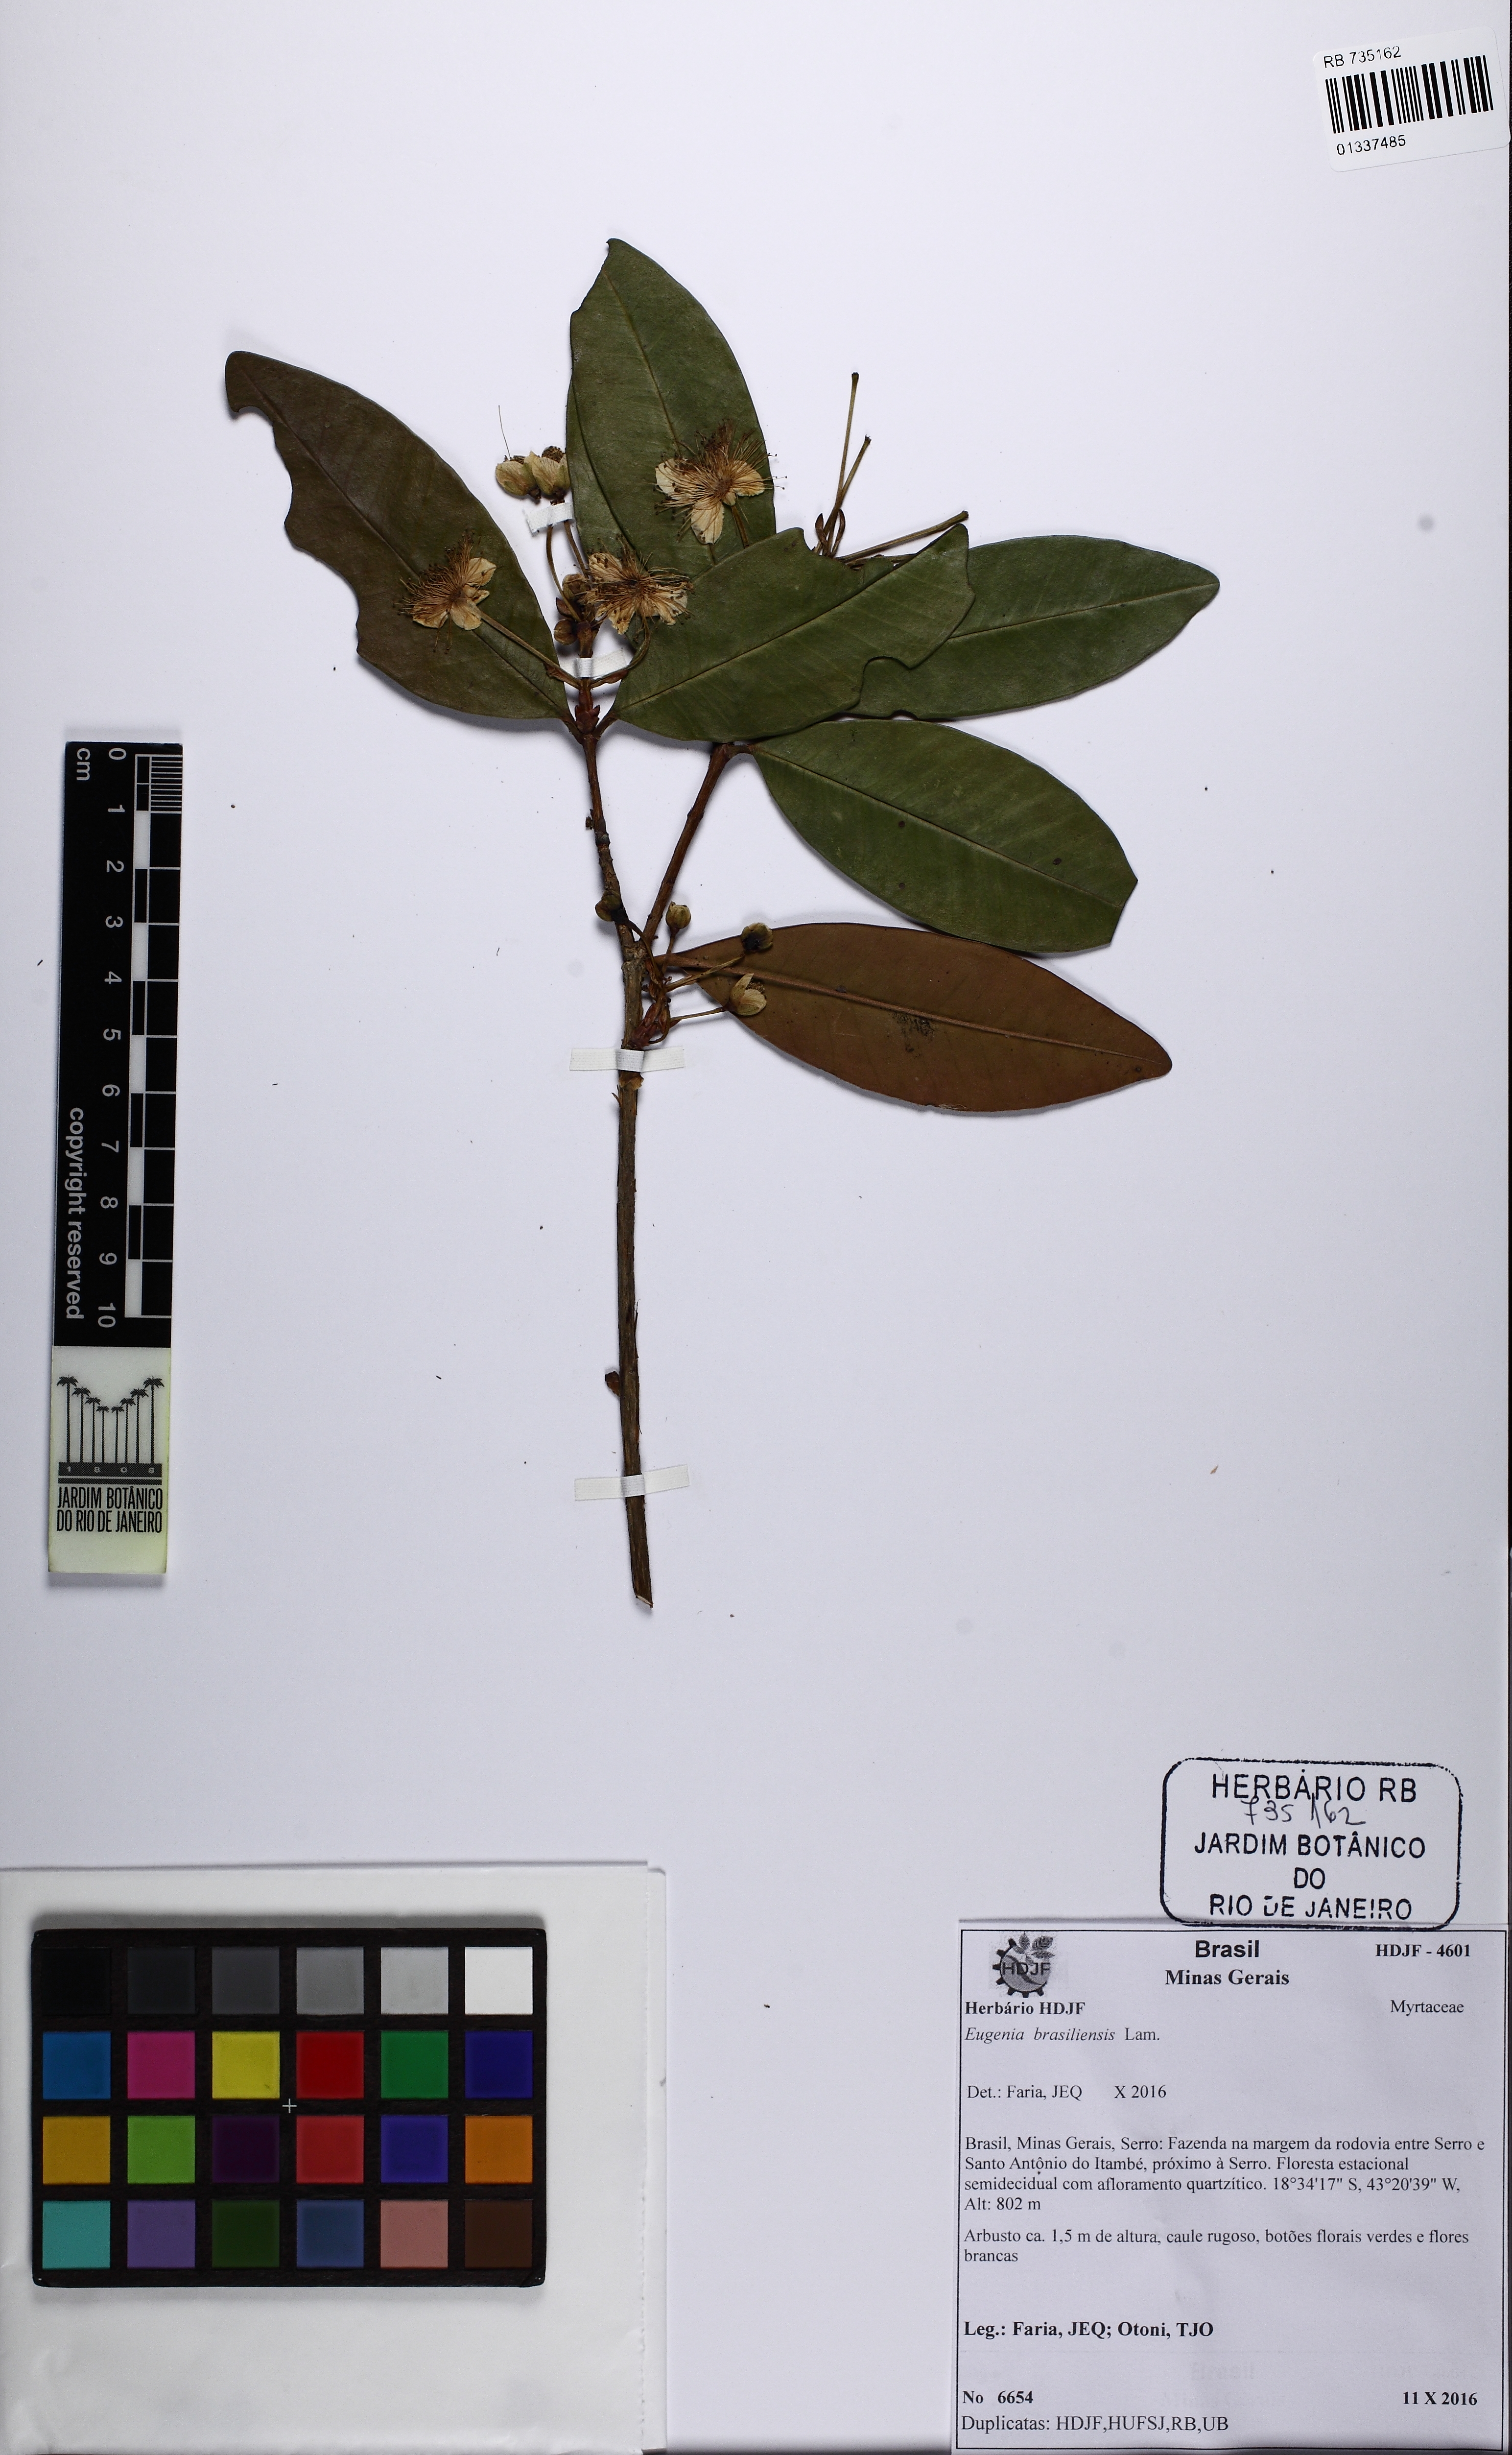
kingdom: Plantae
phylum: Tracheophyta
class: Magnoliopsida
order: Myrtales
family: Myrtaceae
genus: Eugenia
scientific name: Eugenia brasiliensis
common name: Grumichama
